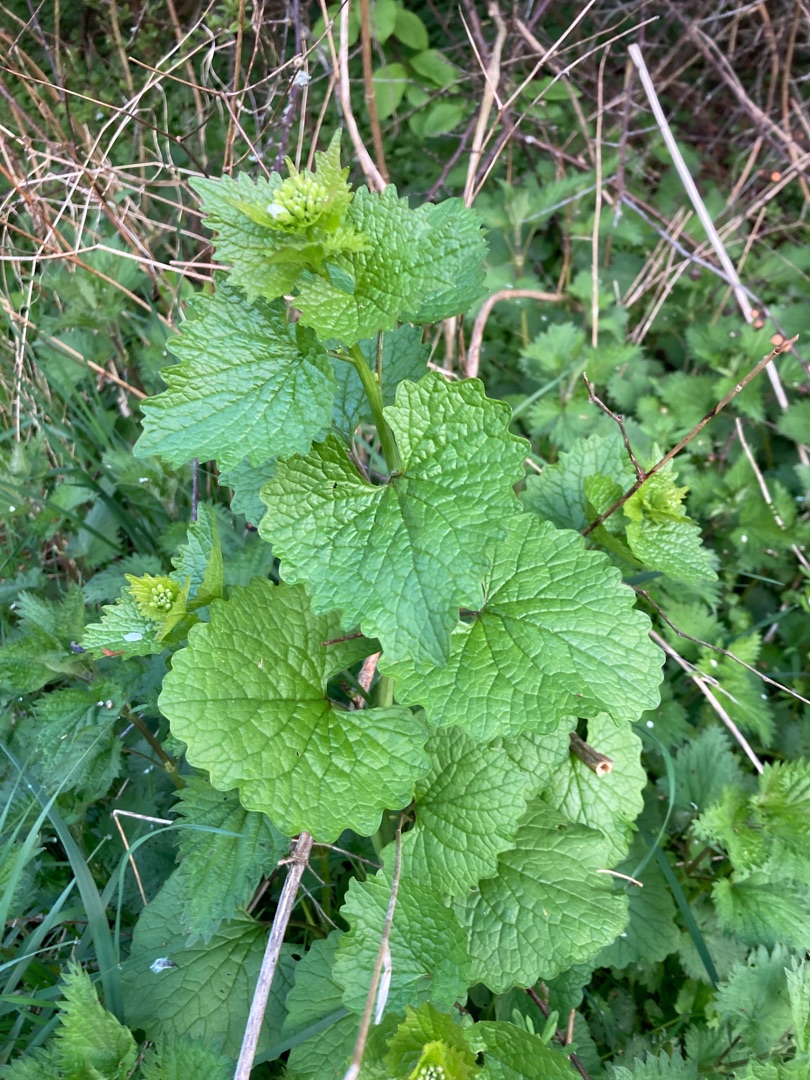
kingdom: Plantae
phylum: Tracheophyta
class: Magnoliopsida
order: Brassicales
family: Brassicaceae
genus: Alliaria
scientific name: Alliaria petiolata
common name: Løgkarse
